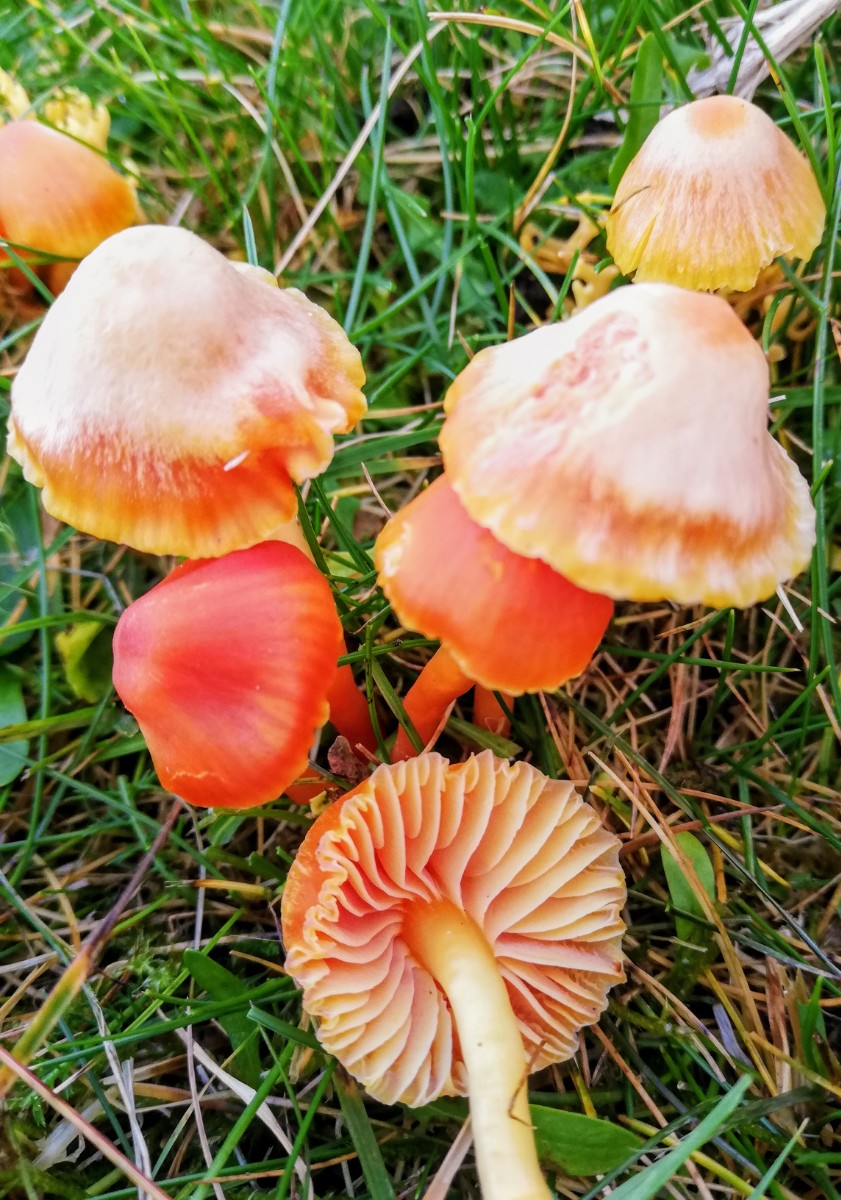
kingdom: Fungi
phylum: Basidiomycota
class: Agaricomycetes
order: Agaricales
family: Hygrophoraceae
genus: Hygrocybe
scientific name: Hygrocybe mucronella
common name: bitter vokshat
